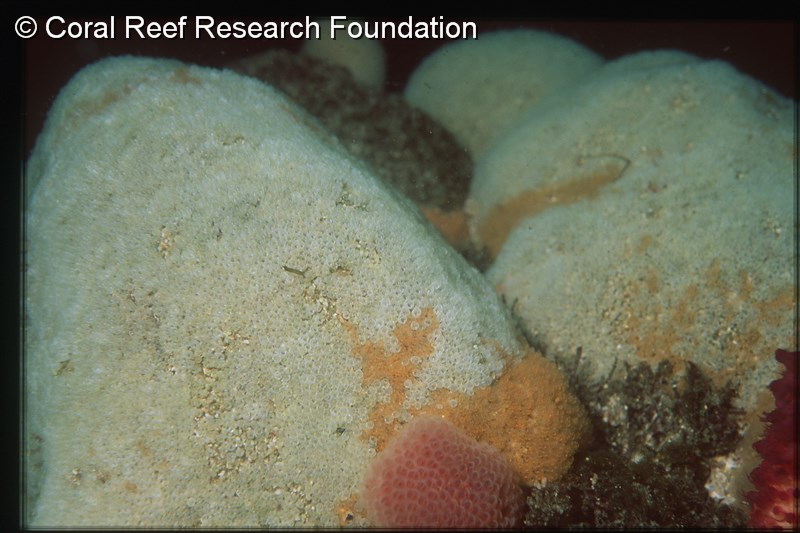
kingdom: Animalia
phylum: Chordata
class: Ascidiacea
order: Aplousobranchia
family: Clavelinidae
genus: Pycnoclavella
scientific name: Pycnoclavella filamentosa
